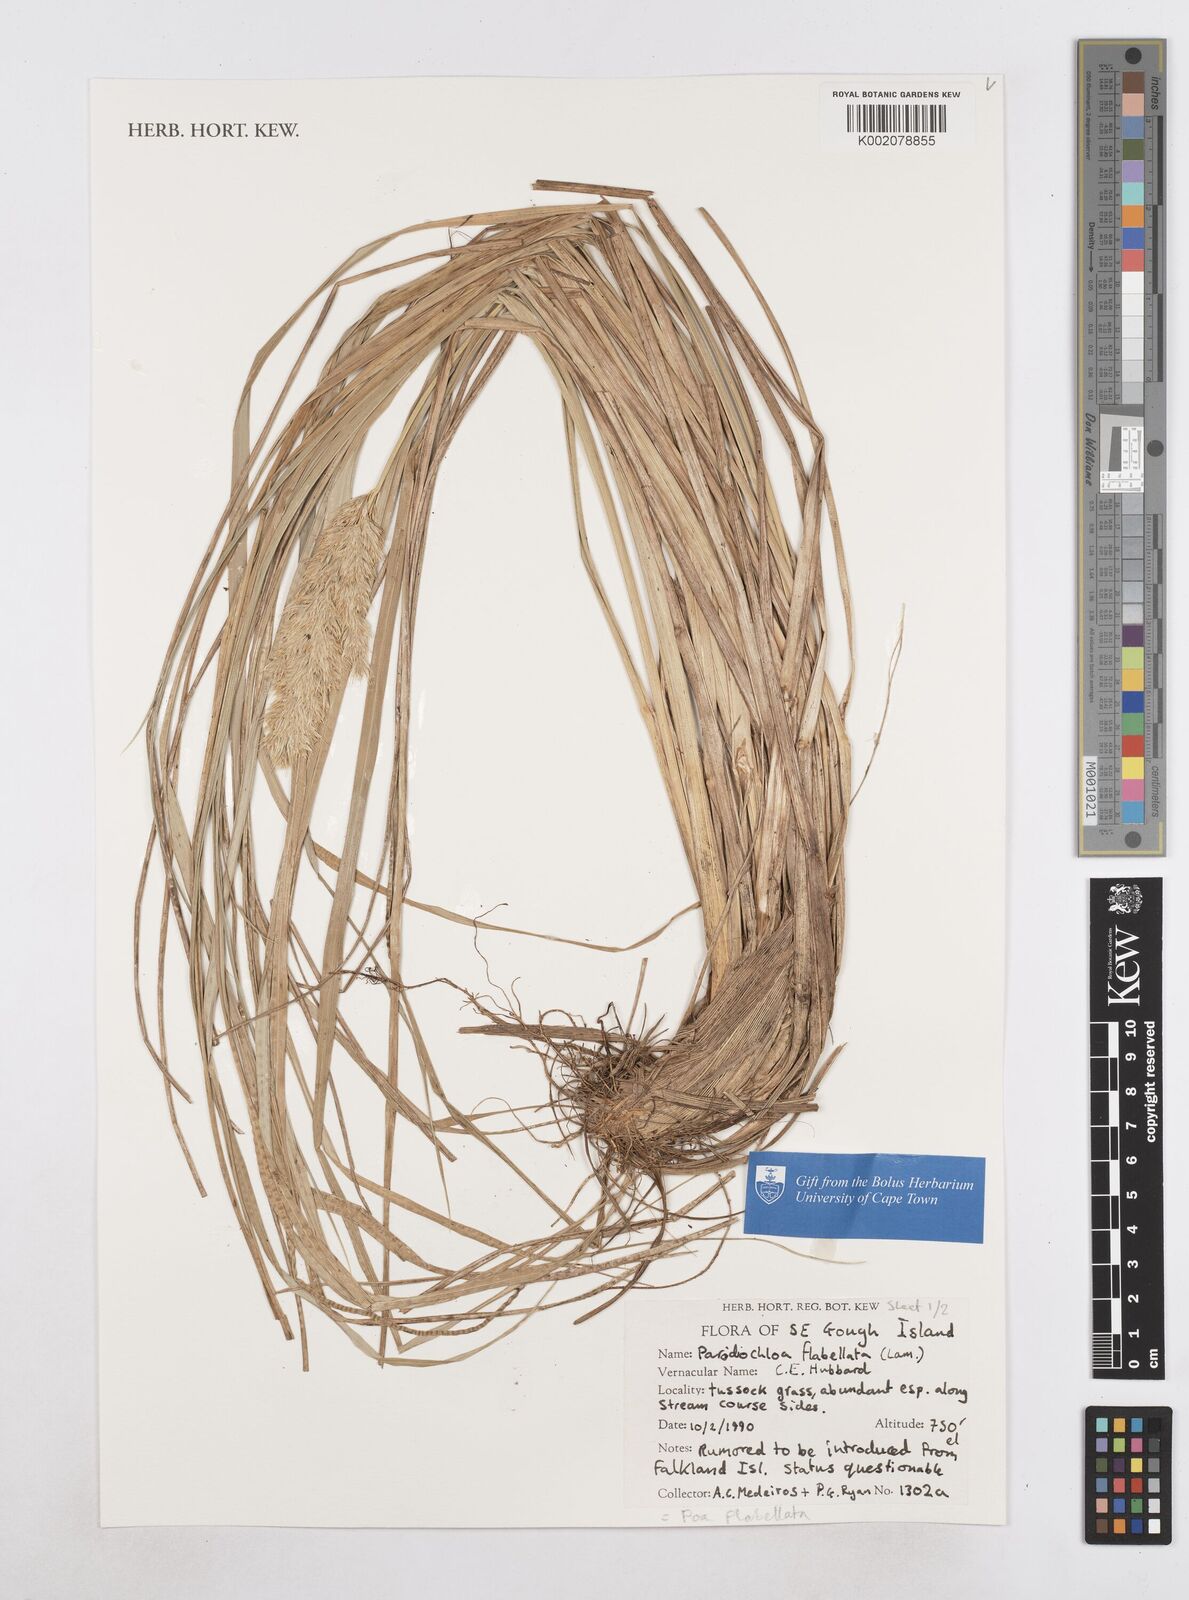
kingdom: Plantae
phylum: Tracheophyta
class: Liliopsida
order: Poales
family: Poaceae
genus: Poa
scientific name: Poa flabellata
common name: Tussac-grass
